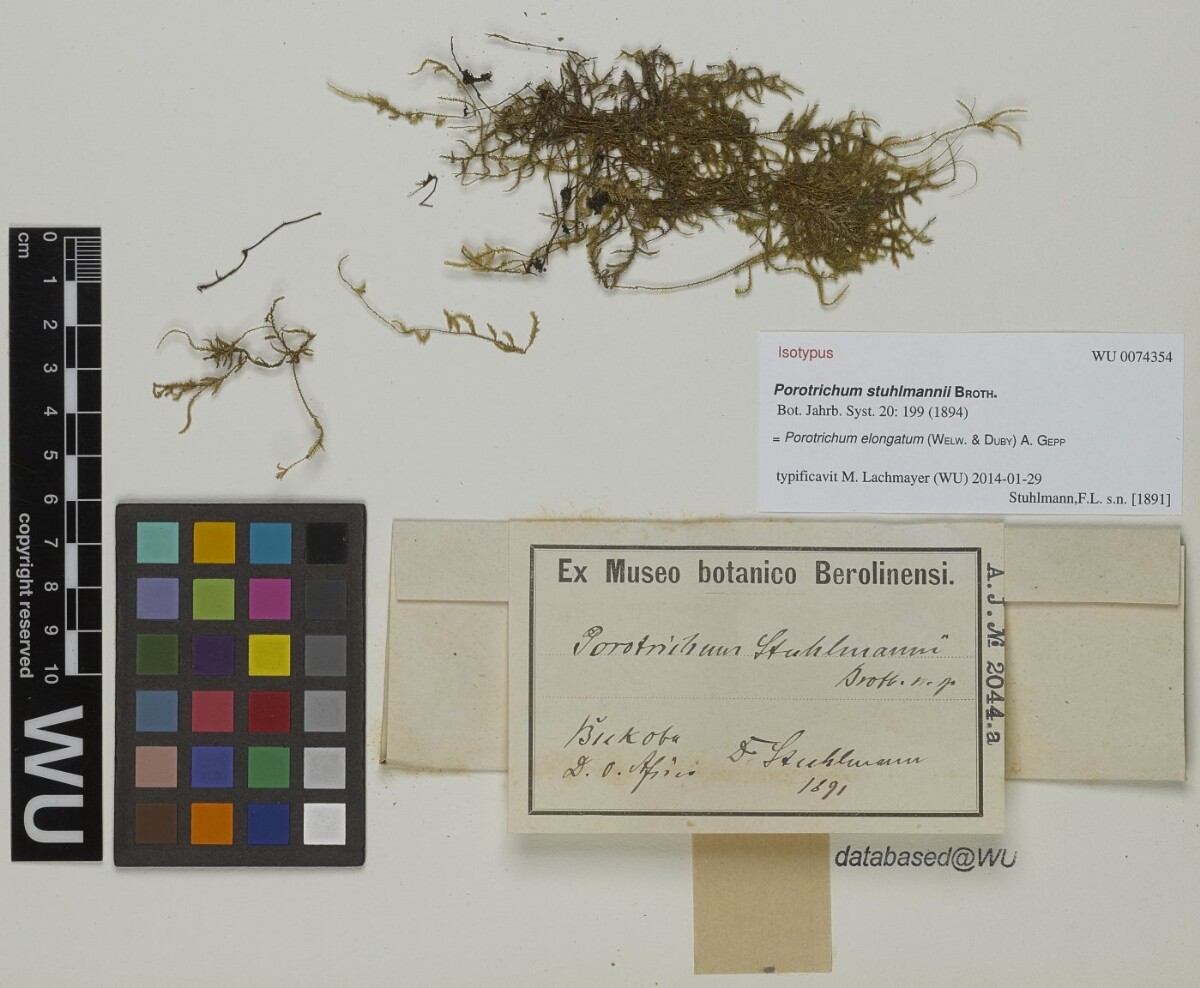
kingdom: Plantae
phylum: Bryophyta
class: Bryopsida
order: Hypnales
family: Orthostichellaceae
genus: Scabrellifolium
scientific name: Scabrellifolium elongatum
